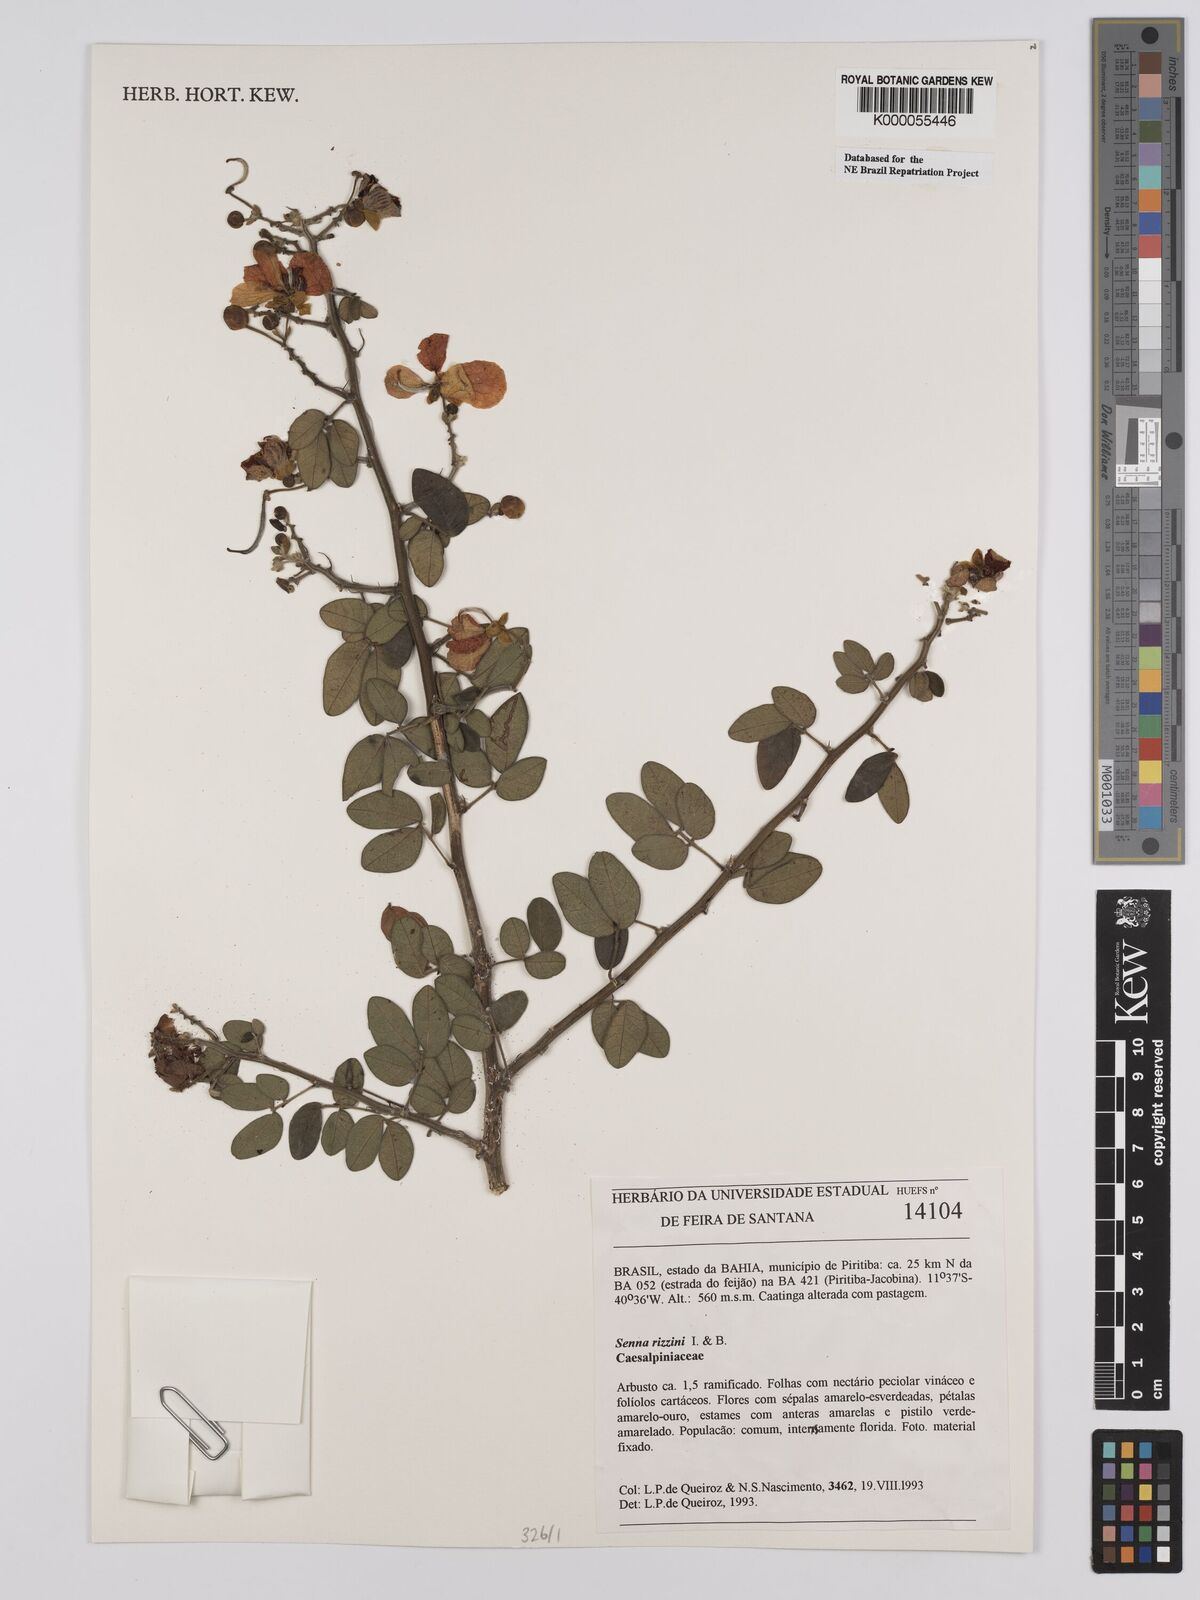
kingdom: Plantae
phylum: Tracheophyta
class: Magnoliopsida
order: Fabales
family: Fabaceae
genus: Senna
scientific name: Senna rizzinii
